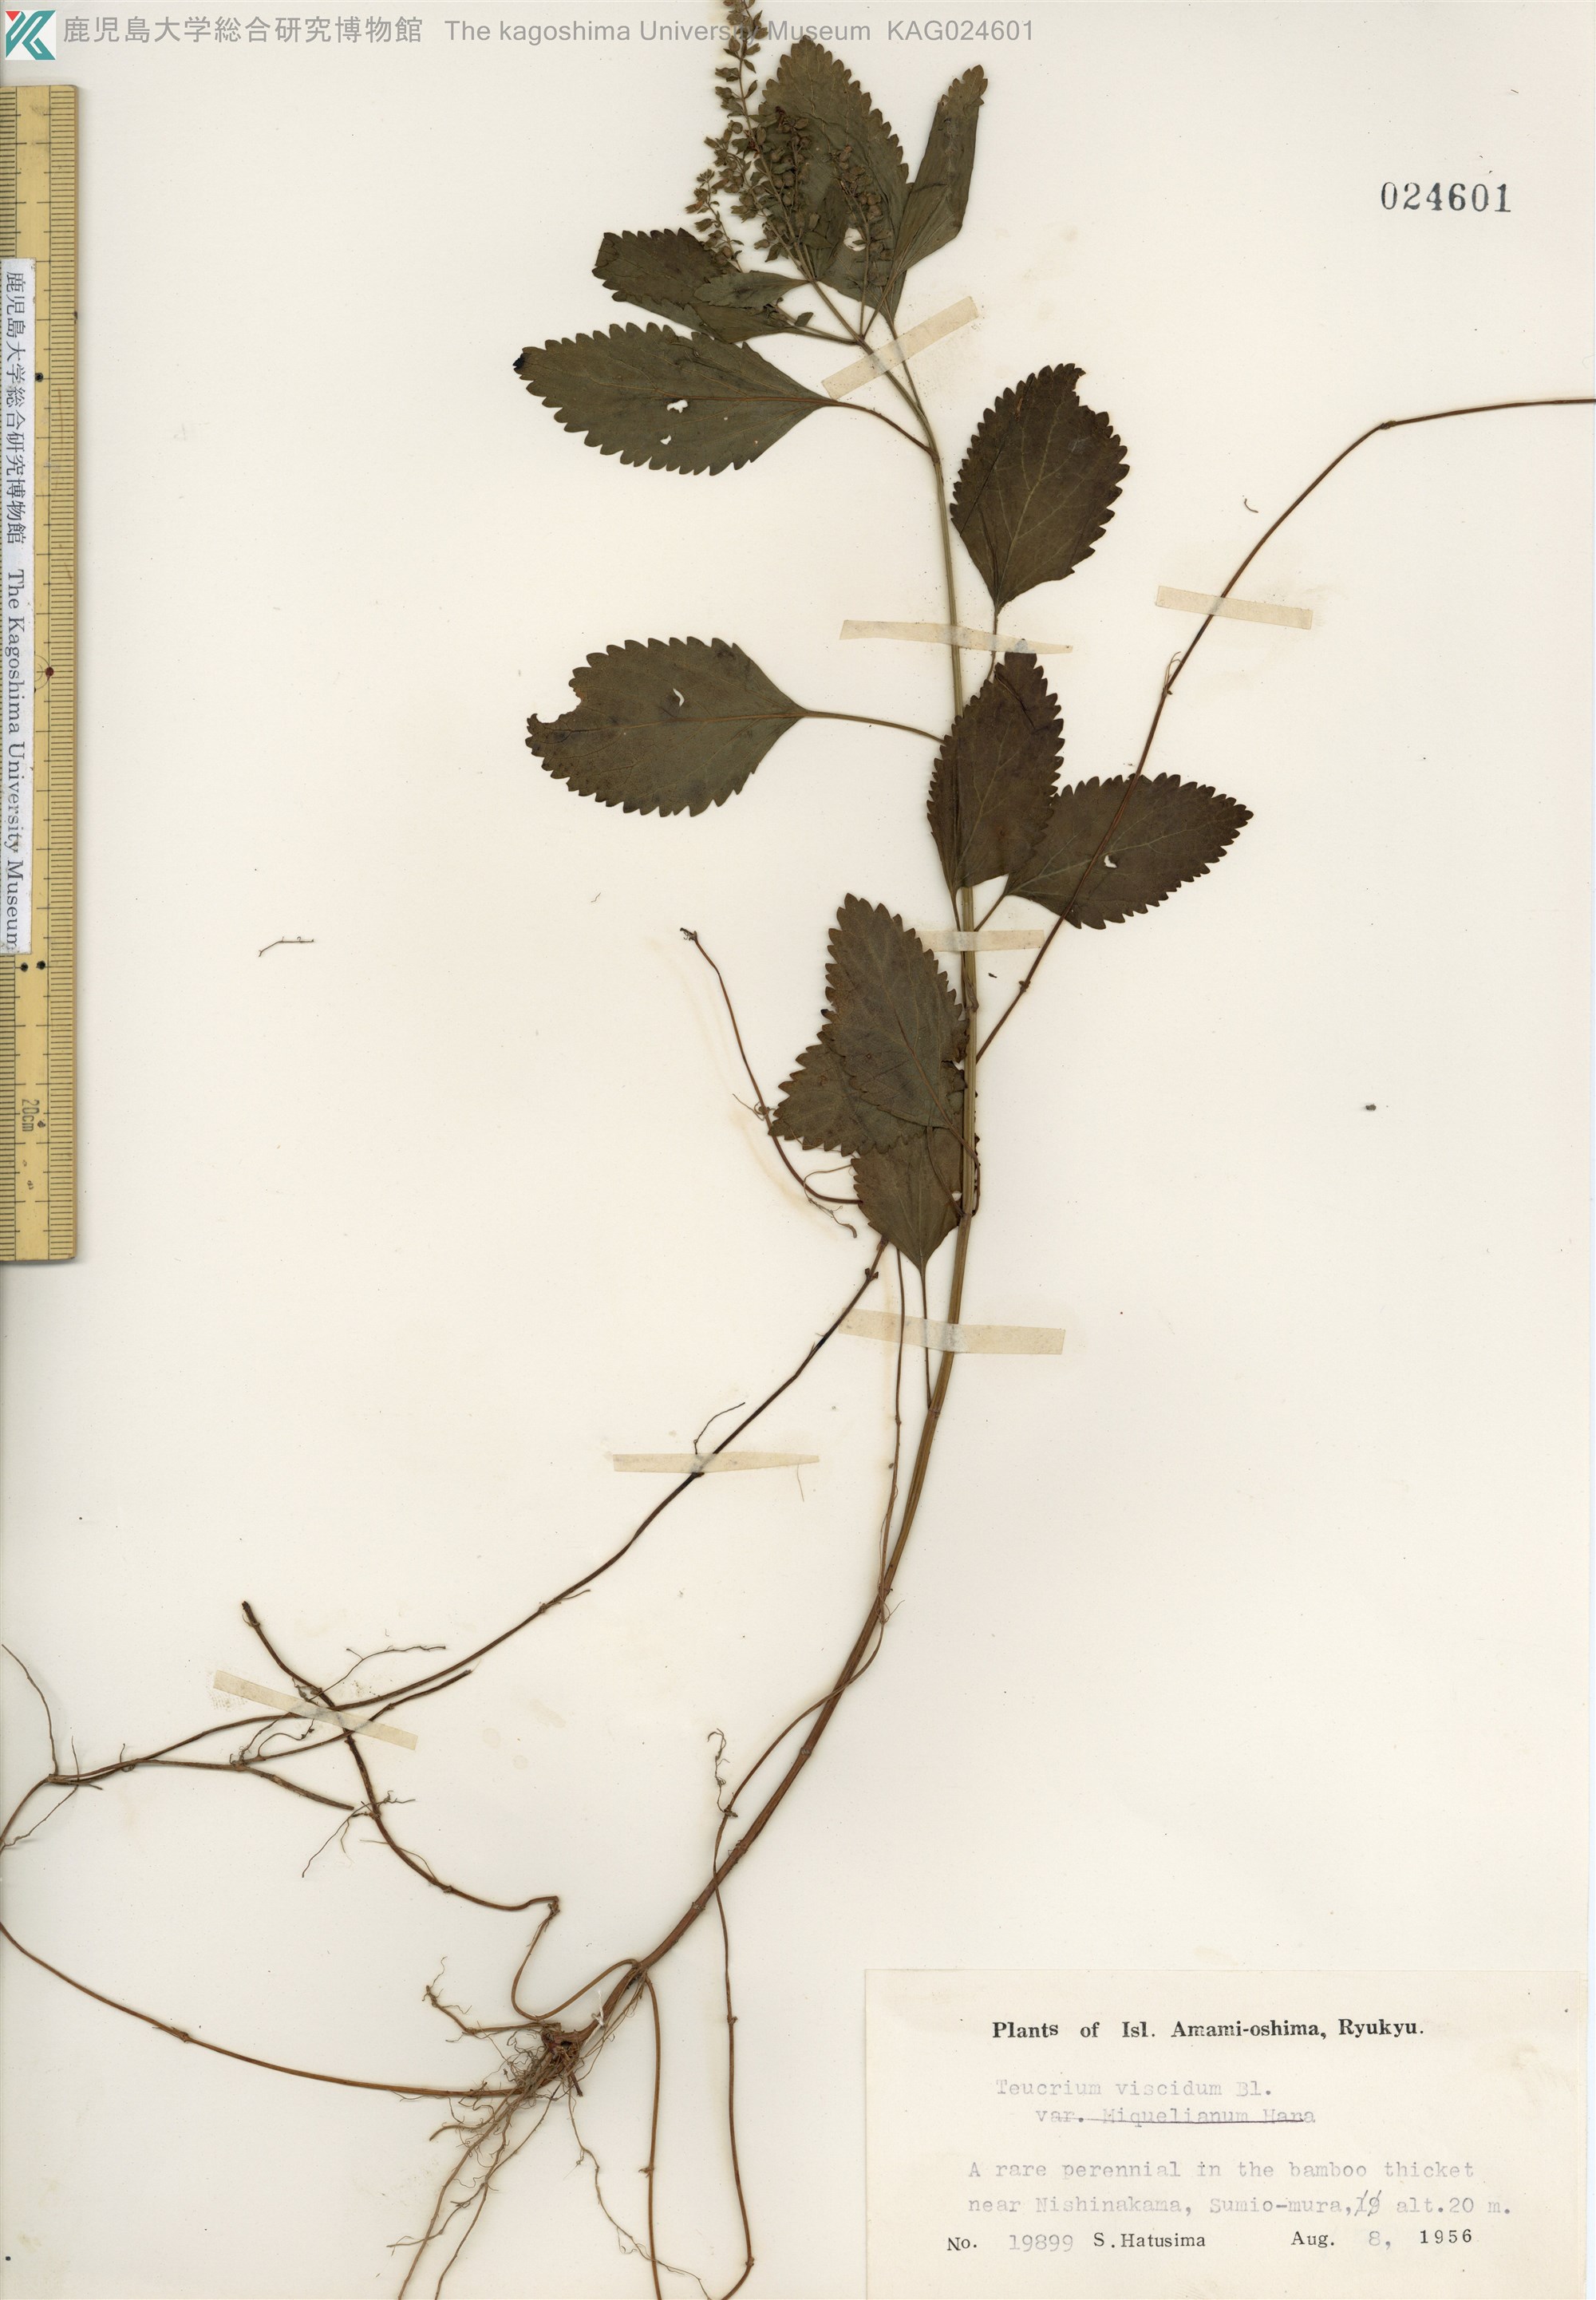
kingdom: Plantae
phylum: Tracheophyta
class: Magnoliopsida
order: Lamiales
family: Lamiaceae
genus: Teucrium
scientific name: Teucrium viscidum
